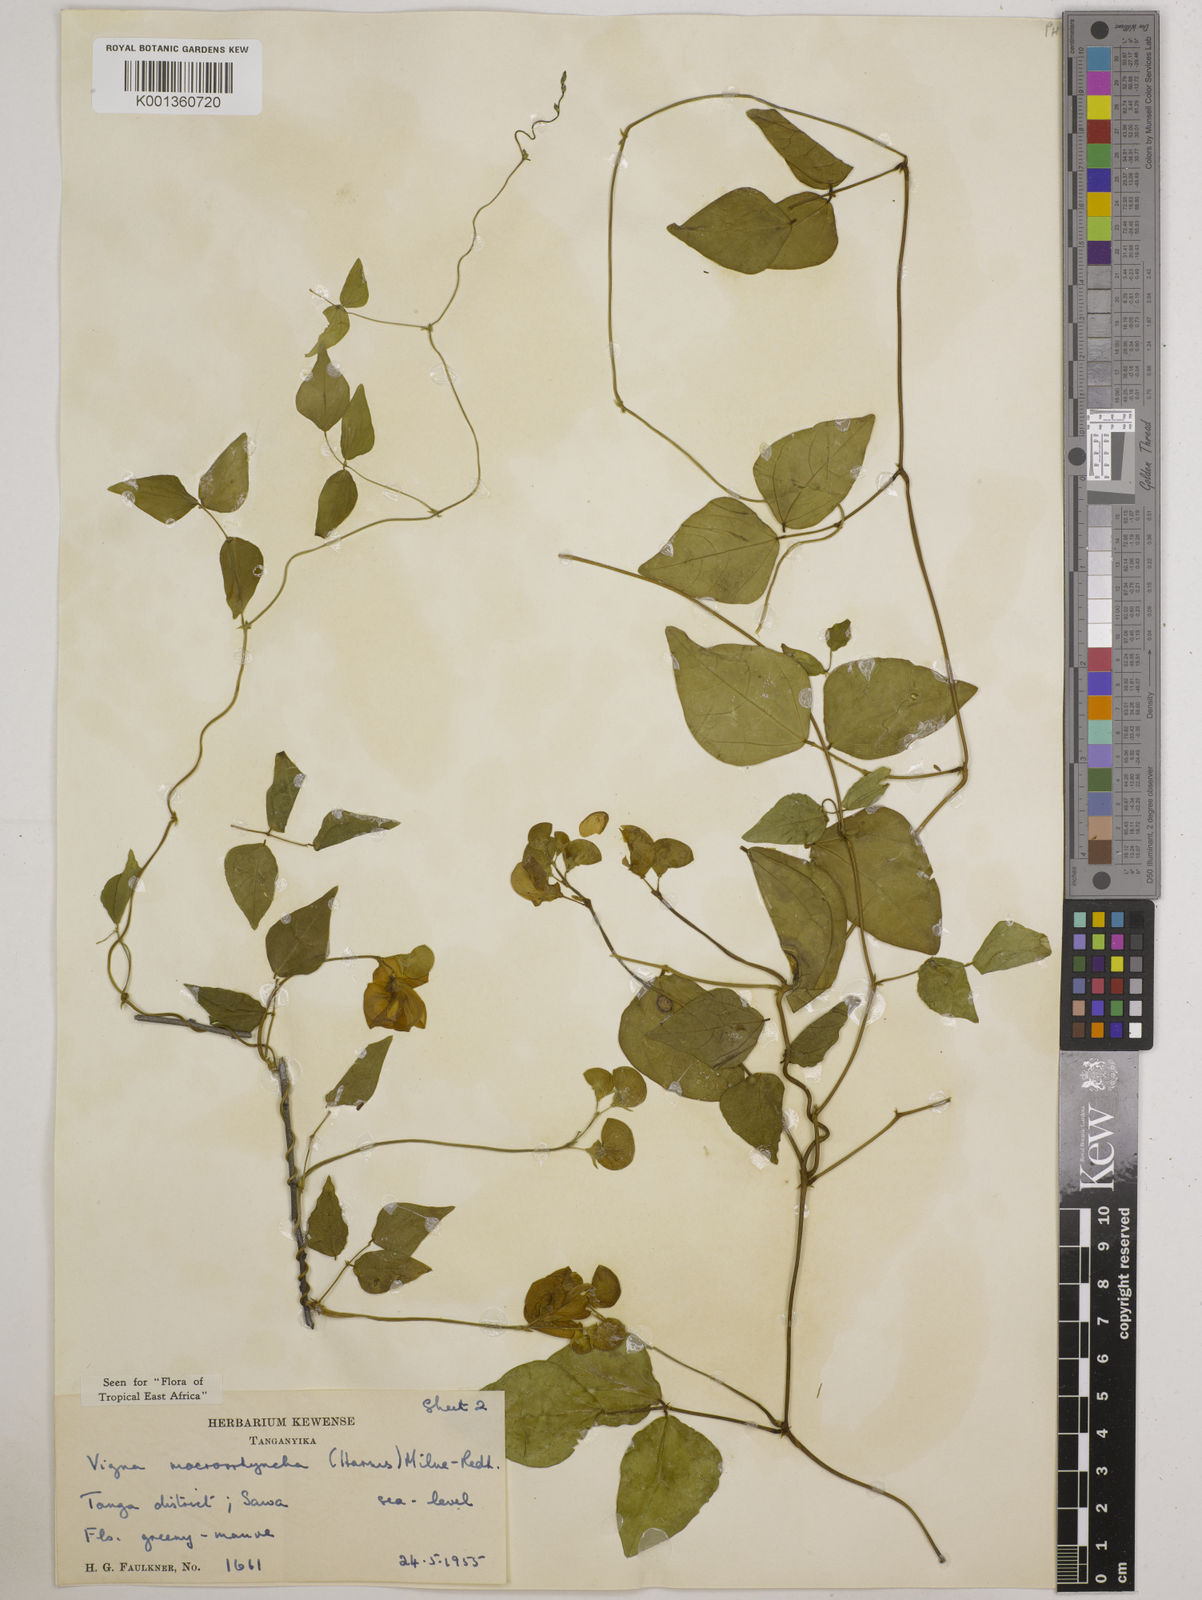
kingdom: Plantae
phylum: Tracheophyta
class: Magnoliopsida
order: Fabales
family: Fabaceae
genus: Wajira
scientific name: Wajira grahamiana
